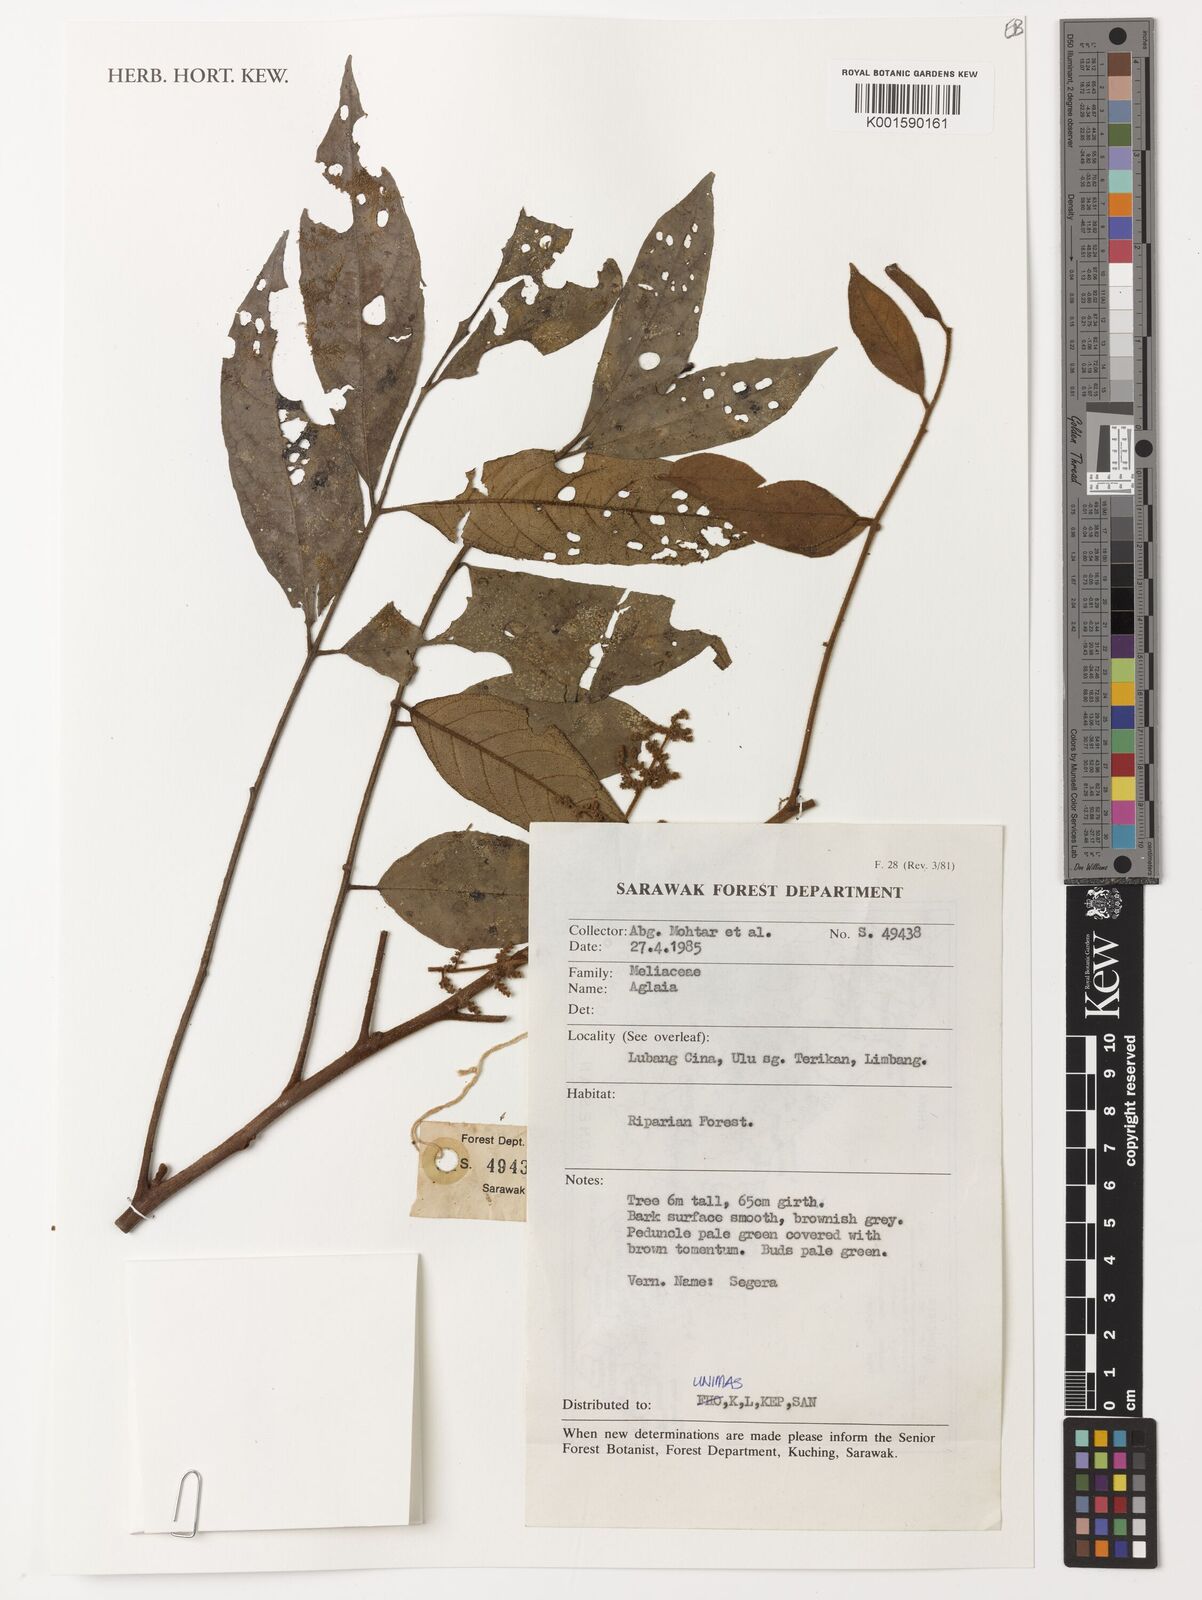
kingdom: Plantae
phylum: Tracheophyta
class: Magnoliopsida
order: Sapindales
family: Meliaceae
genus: Aglaia
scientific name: Aglaia
